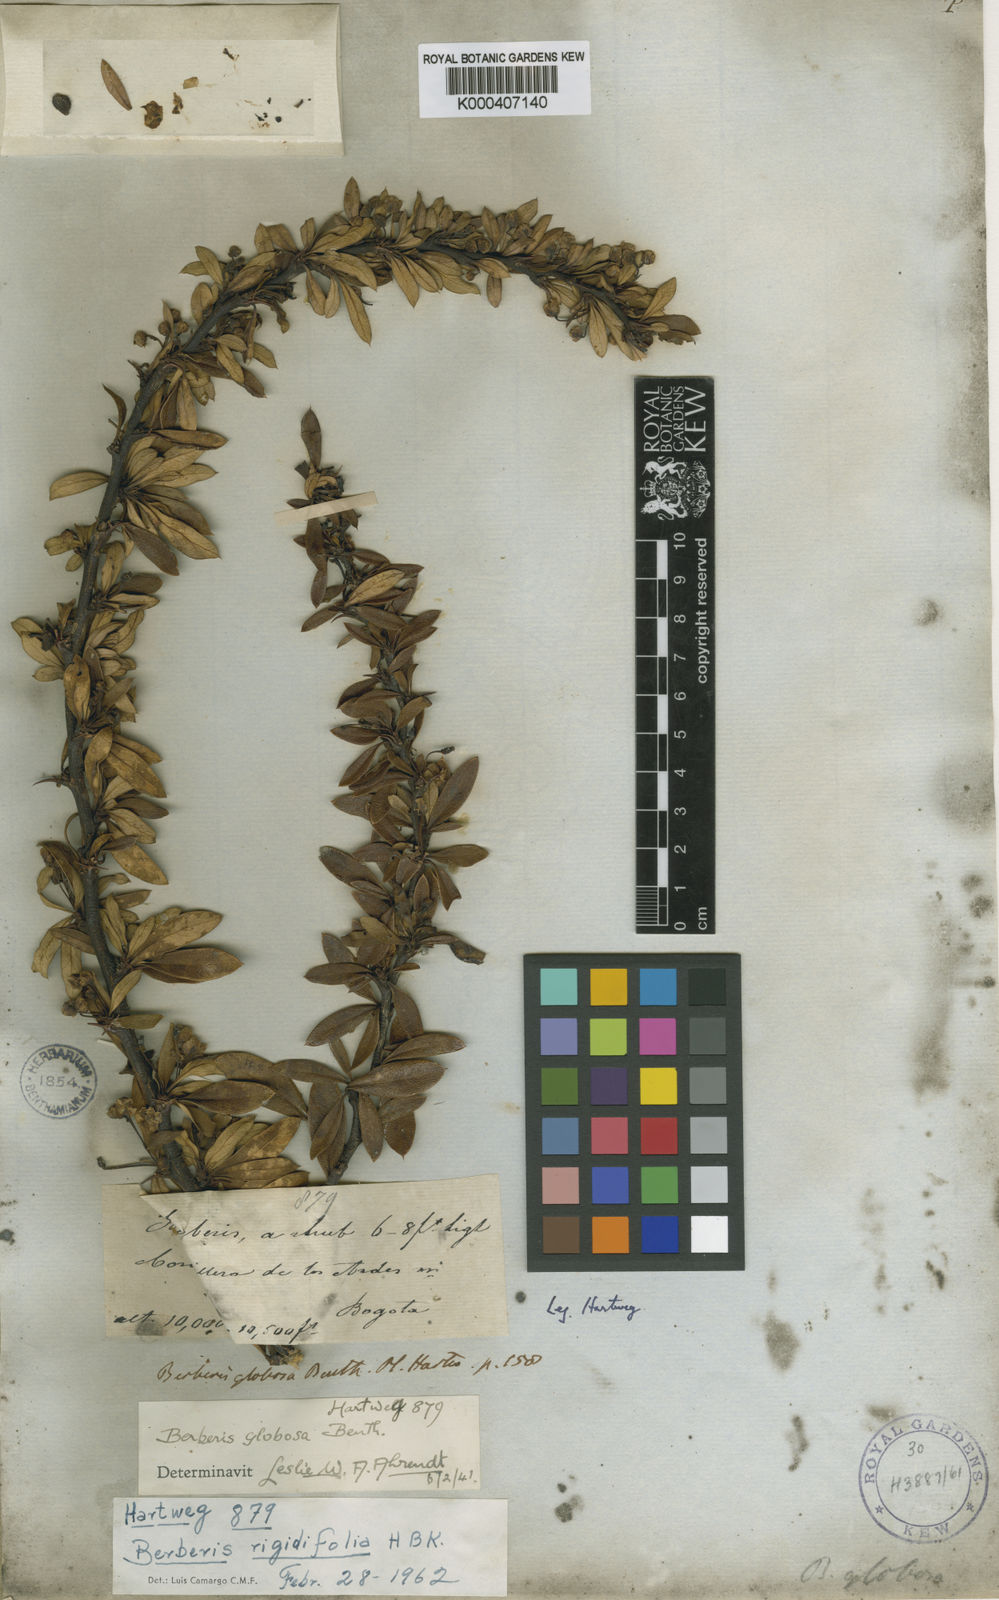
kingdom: Plantae
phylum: Tracheophyta
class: Magnoliopsida
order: Ranunculales
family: Berberidaceae
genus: Berberis
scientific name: Berberis rigidifolia
